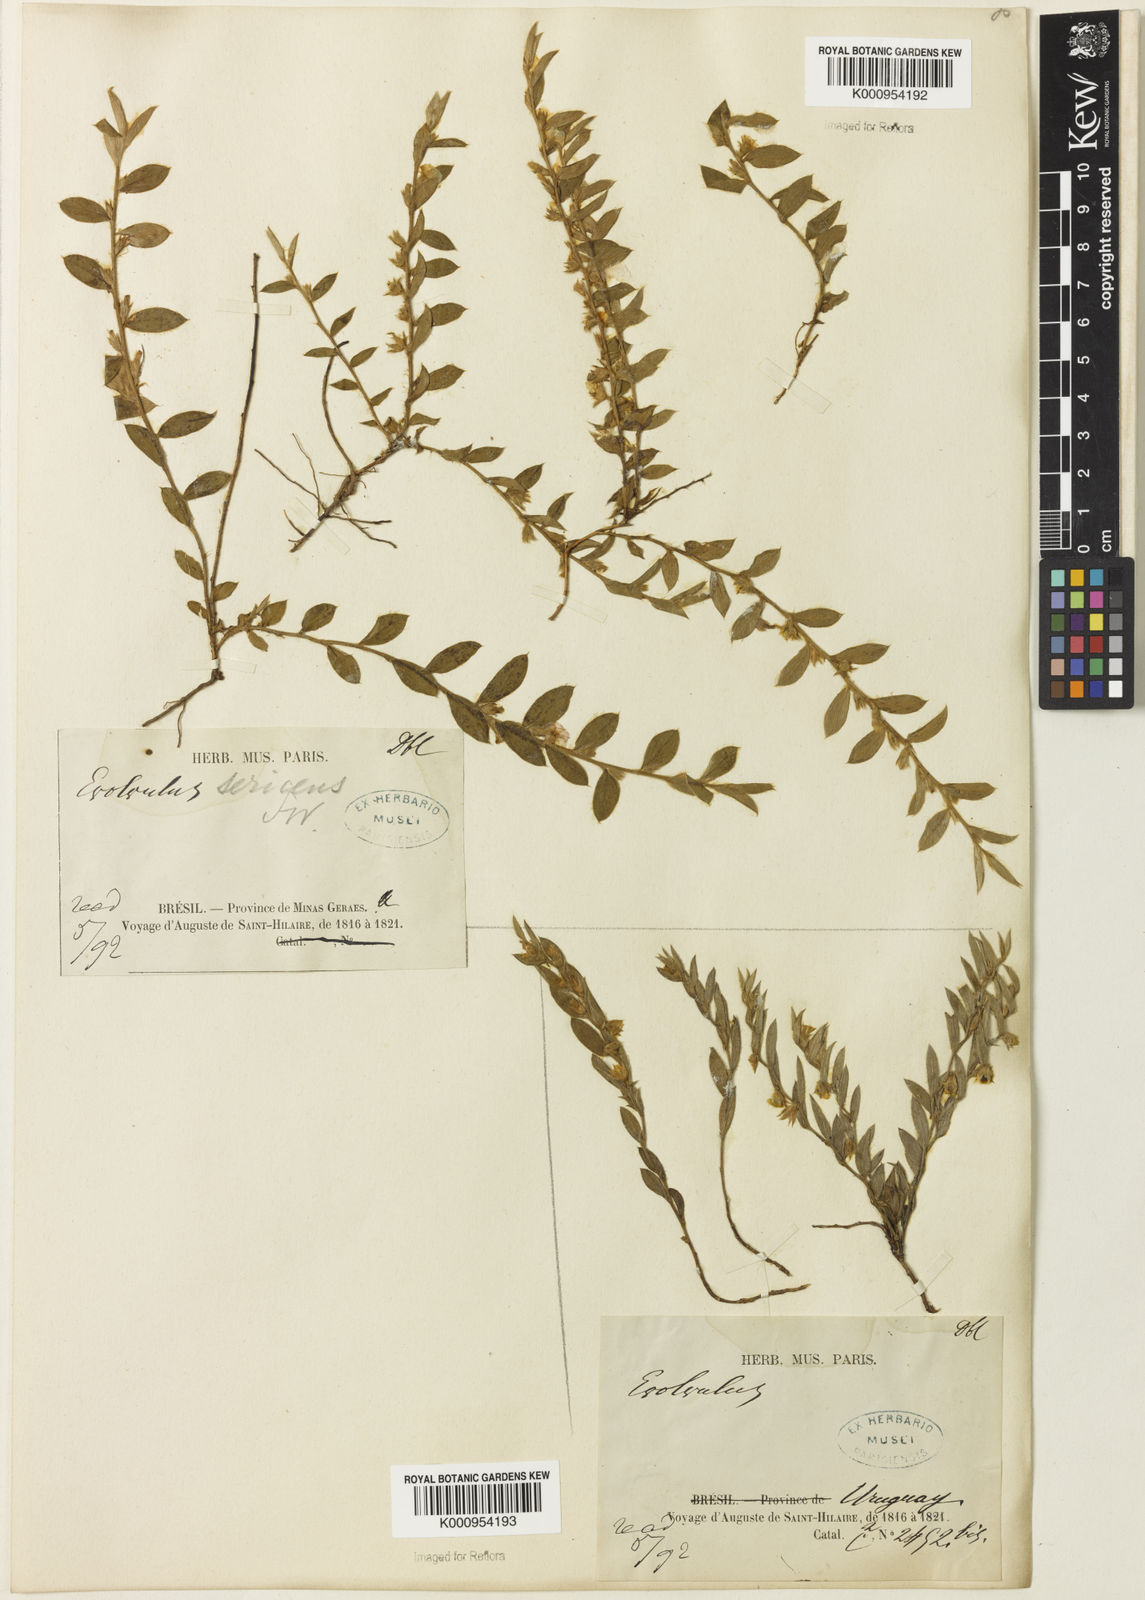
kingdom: Plantae
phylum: Tracheophyta
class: Magnoliopsida
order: Solanales
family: Convolvulaceae
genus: Evolvulus
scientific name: Evolvulus
